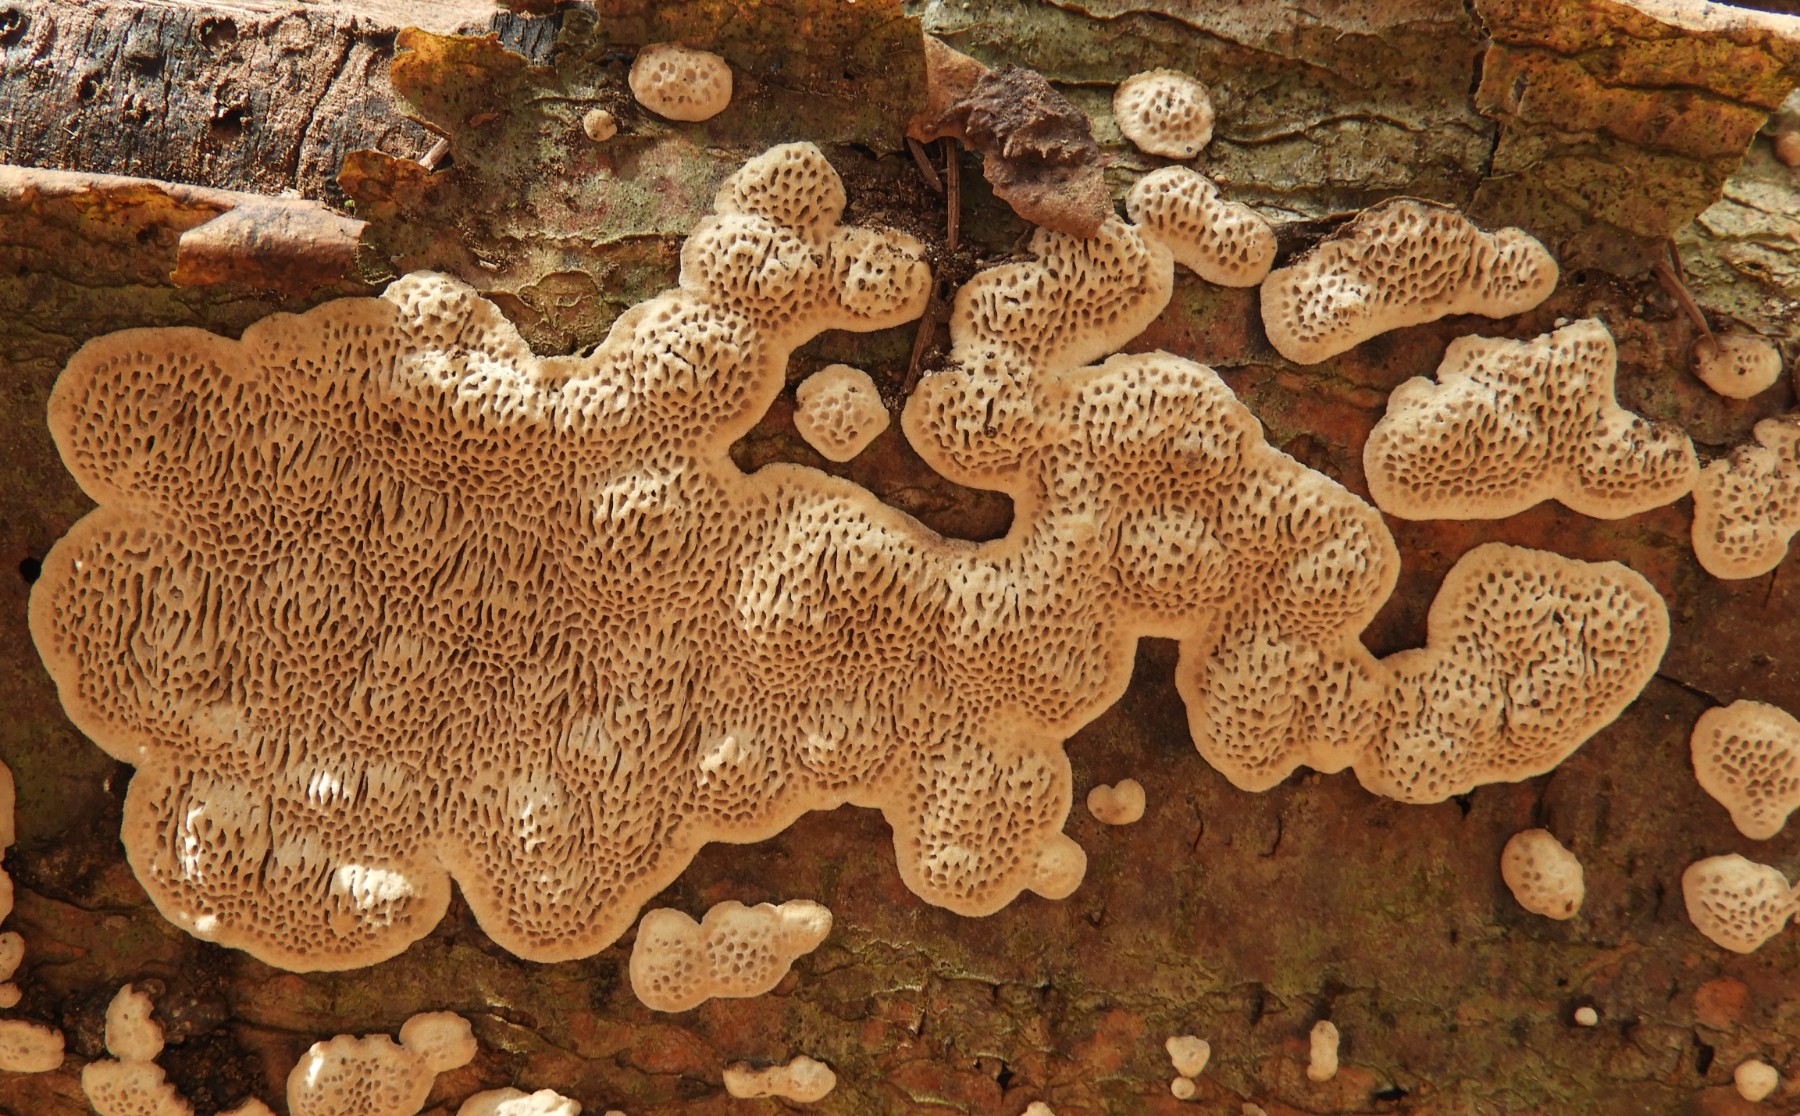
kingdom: Fungi
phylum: Basidiomycota
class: Agaricomycetes
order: Polyporales
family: Polyporaceae
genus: Podofomes
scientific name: Podofomes mollis
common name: blød begporesvamp
